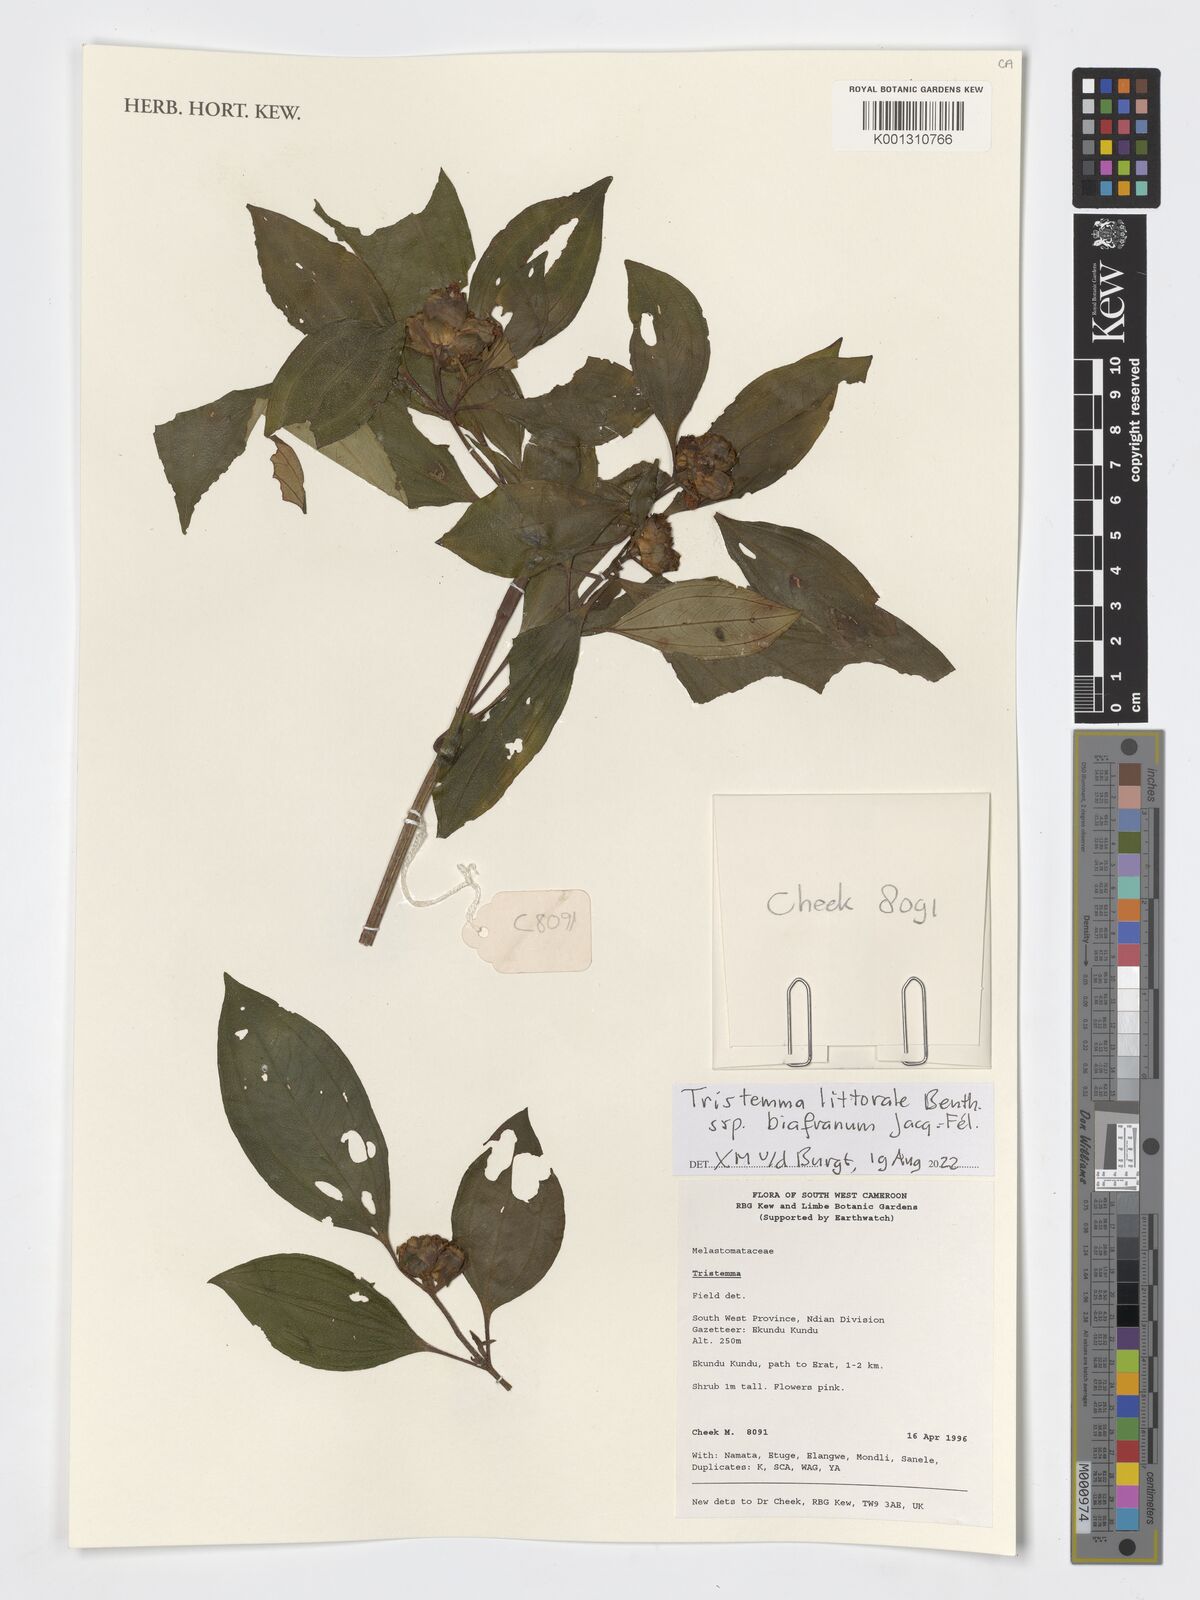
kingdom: Plantae
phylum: Tracheophyta
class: Magnoliopsida
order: Myrtales
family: Melastomataceae
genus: Tristemma
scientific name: Tristemma littorale
